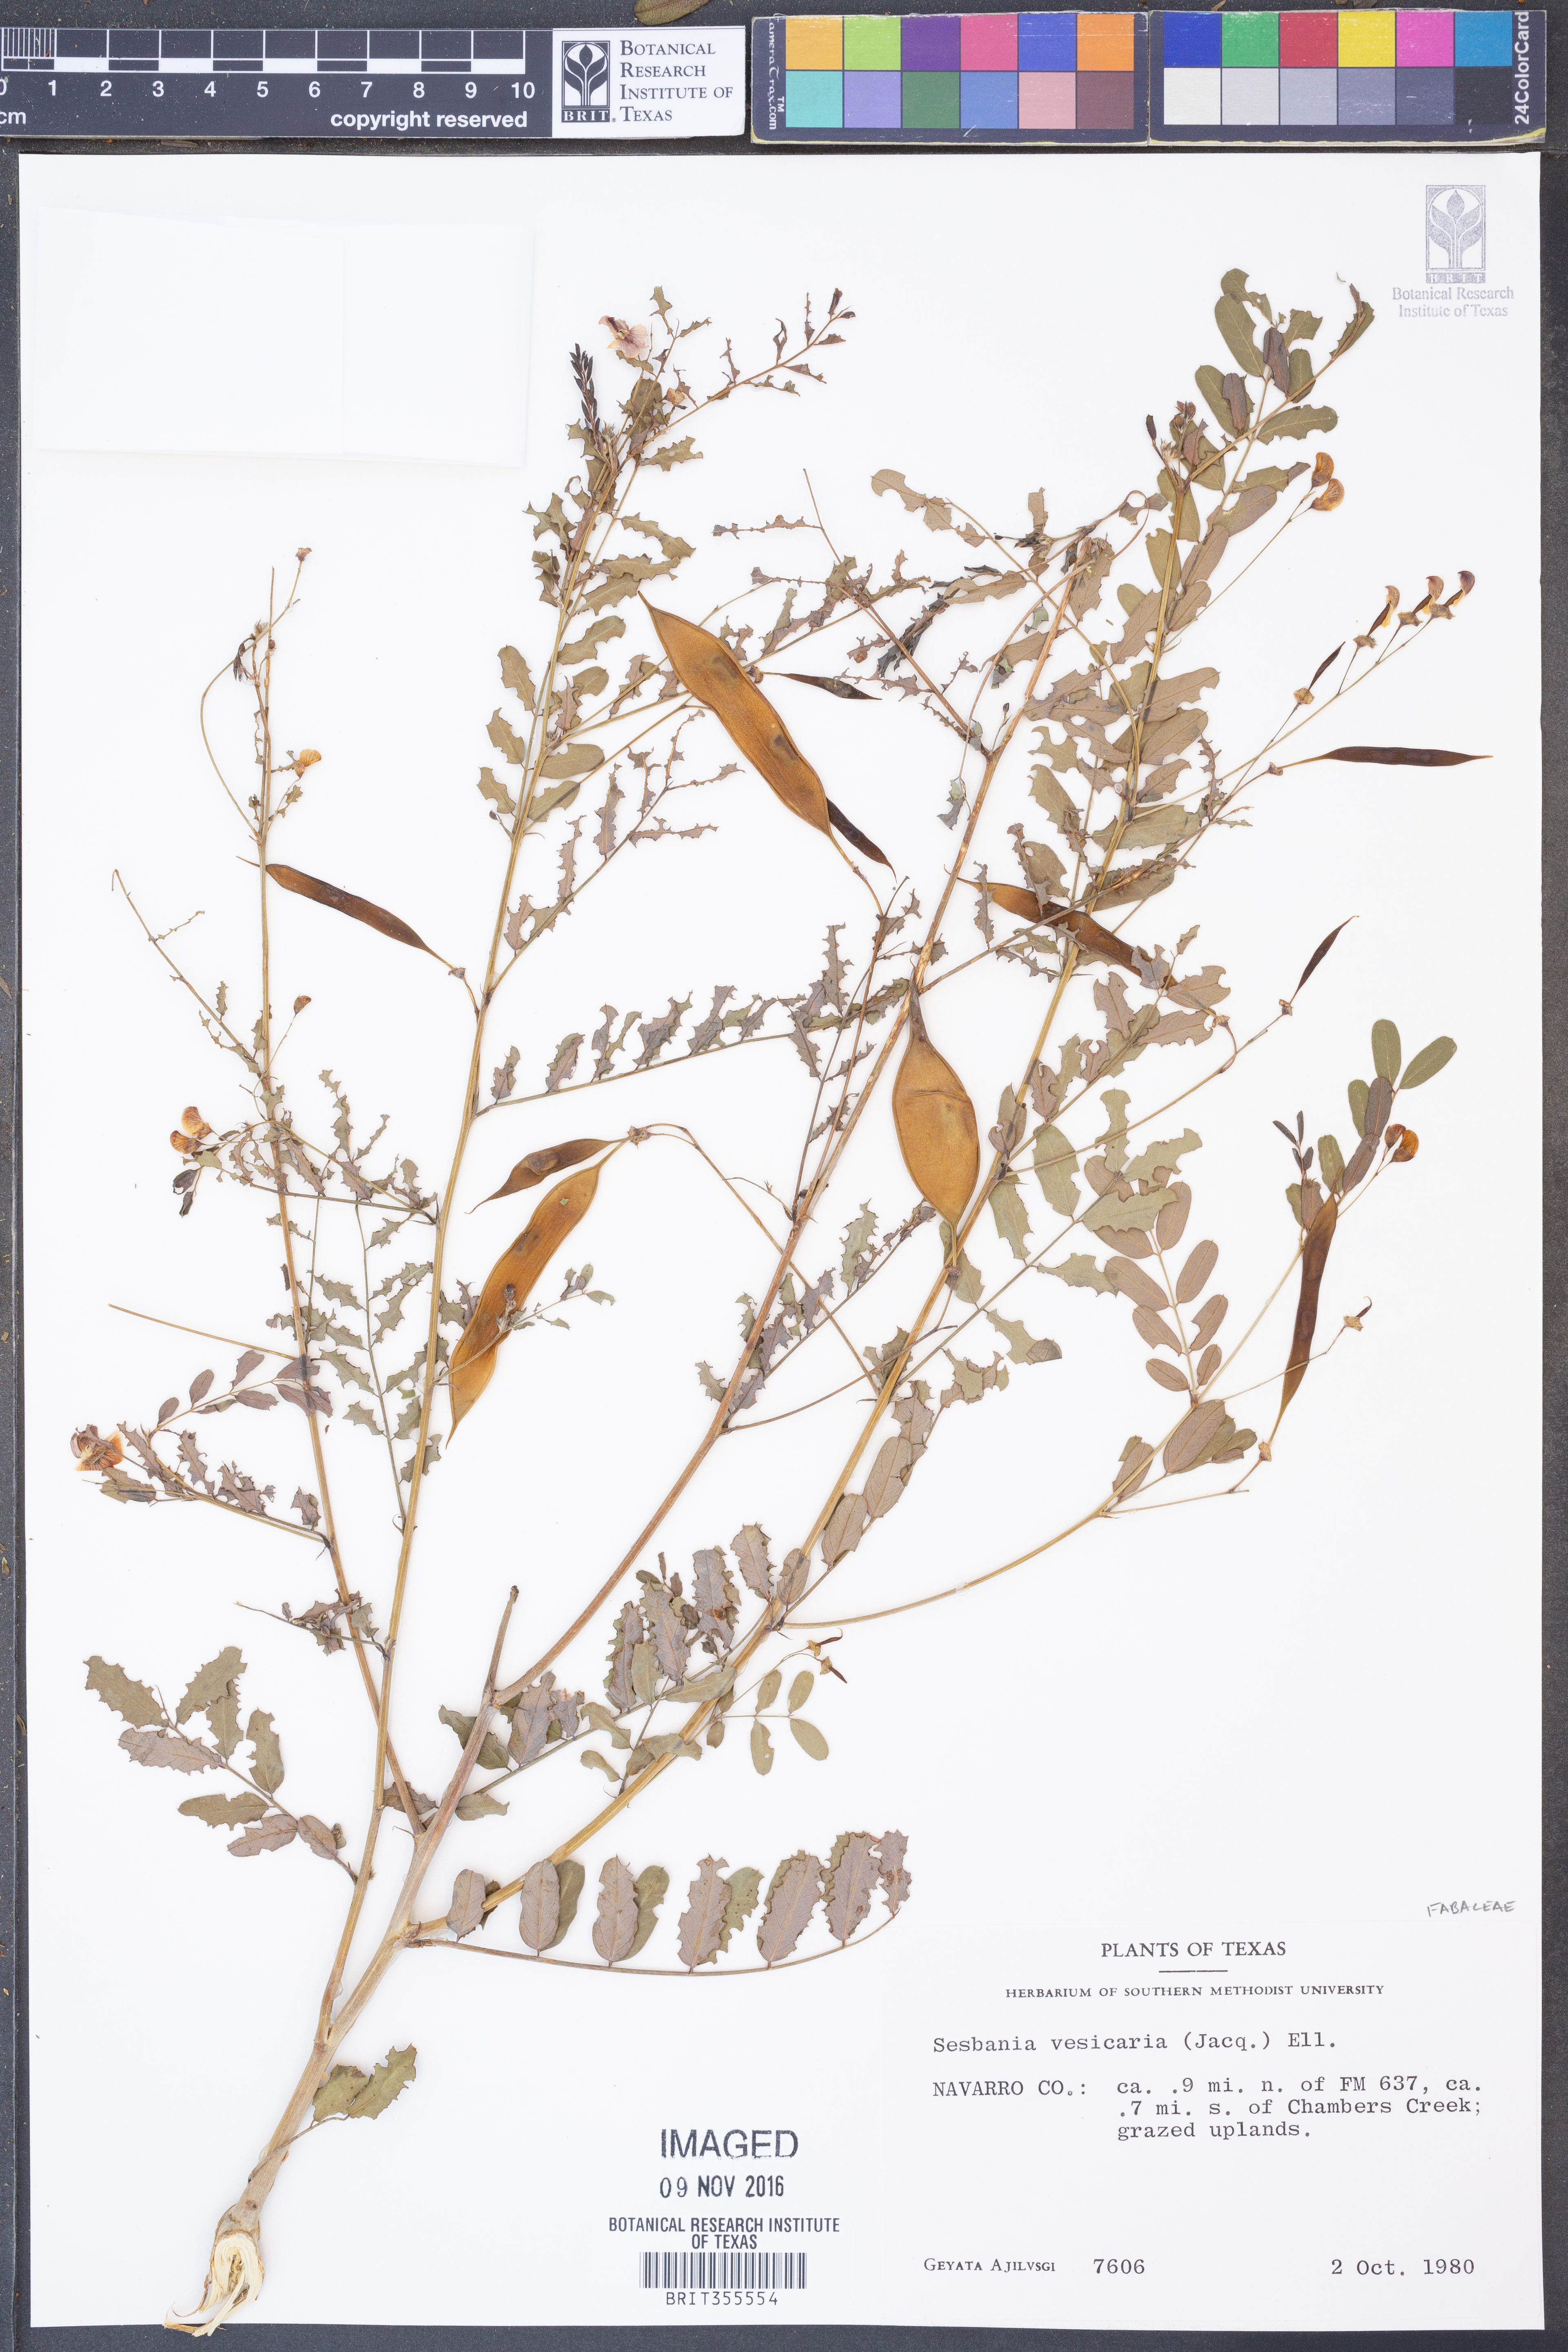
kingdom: Plantae
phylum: Tracheophyta
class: Magnoliopsida
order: Fabales
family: Fabaceae
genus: Sesbania
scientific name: Sesbania vesicaria
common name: Bagpod
